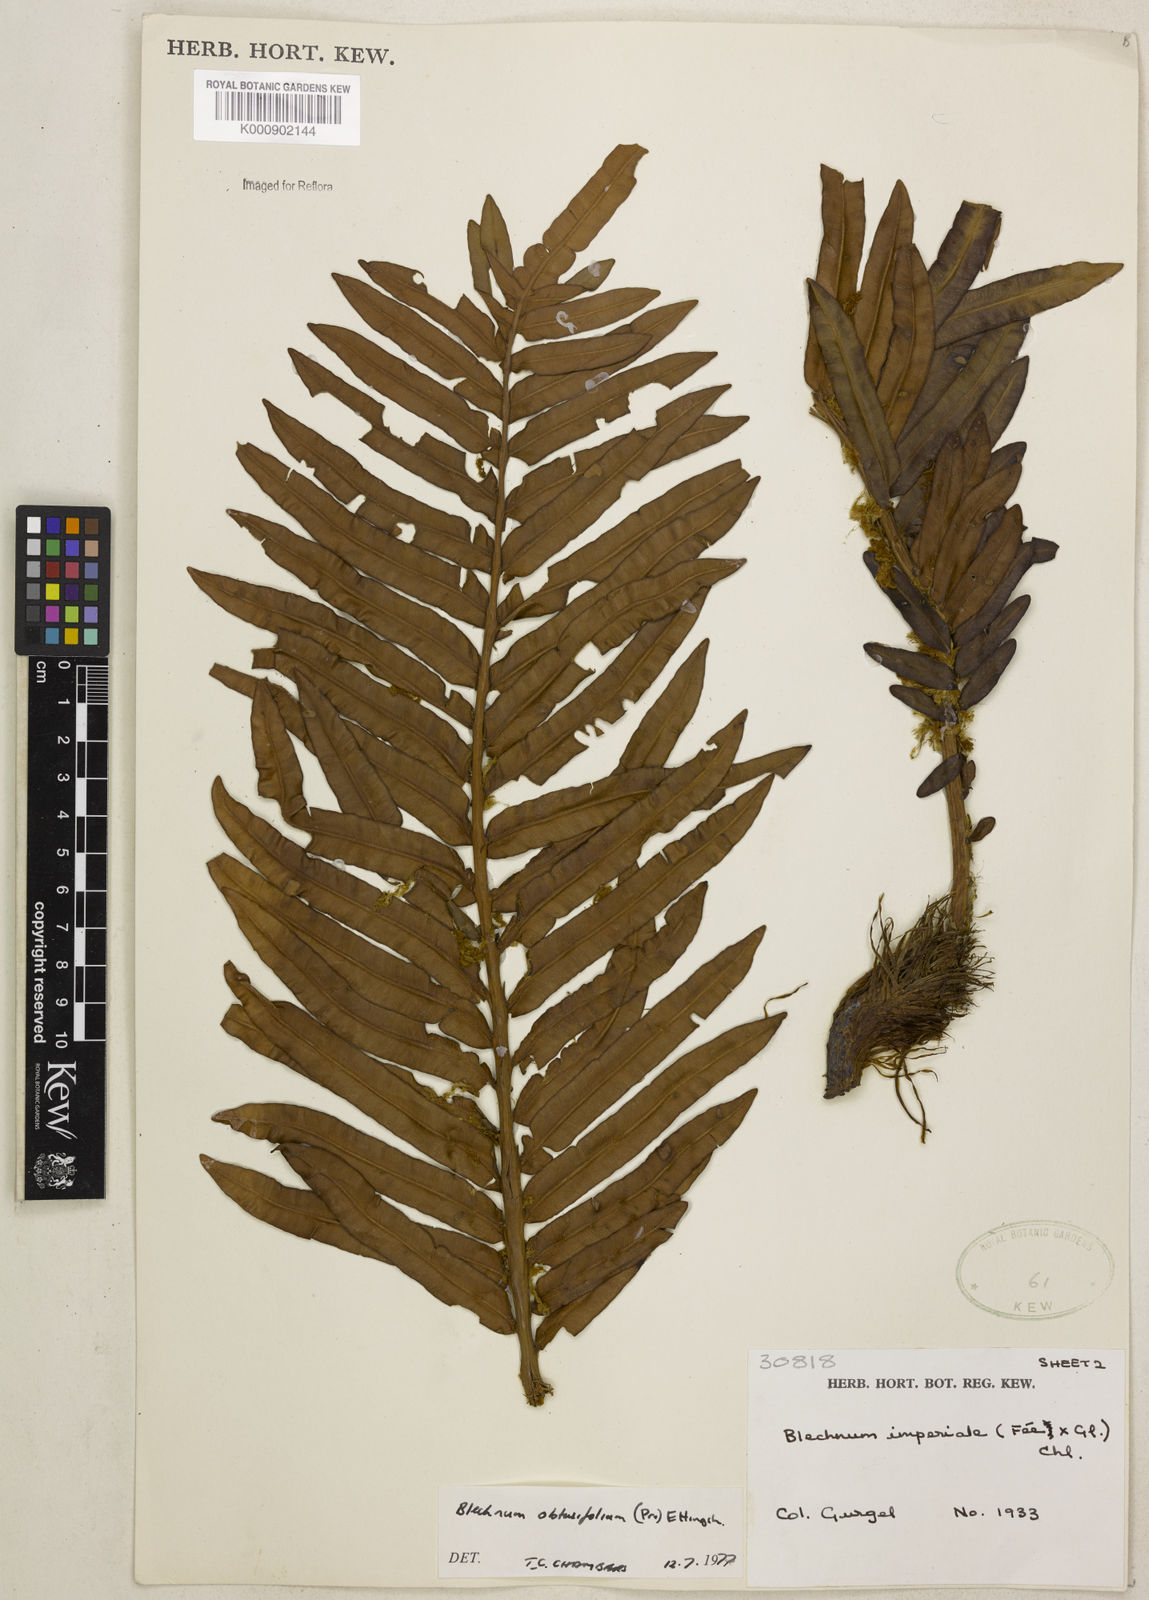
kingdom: Plantae
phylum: Tracheophyta
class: Polypodiopsida
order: Polypodiales
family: Blechnaceae
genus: Lomariocycas
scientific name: Lomariocycas obtusifolia
